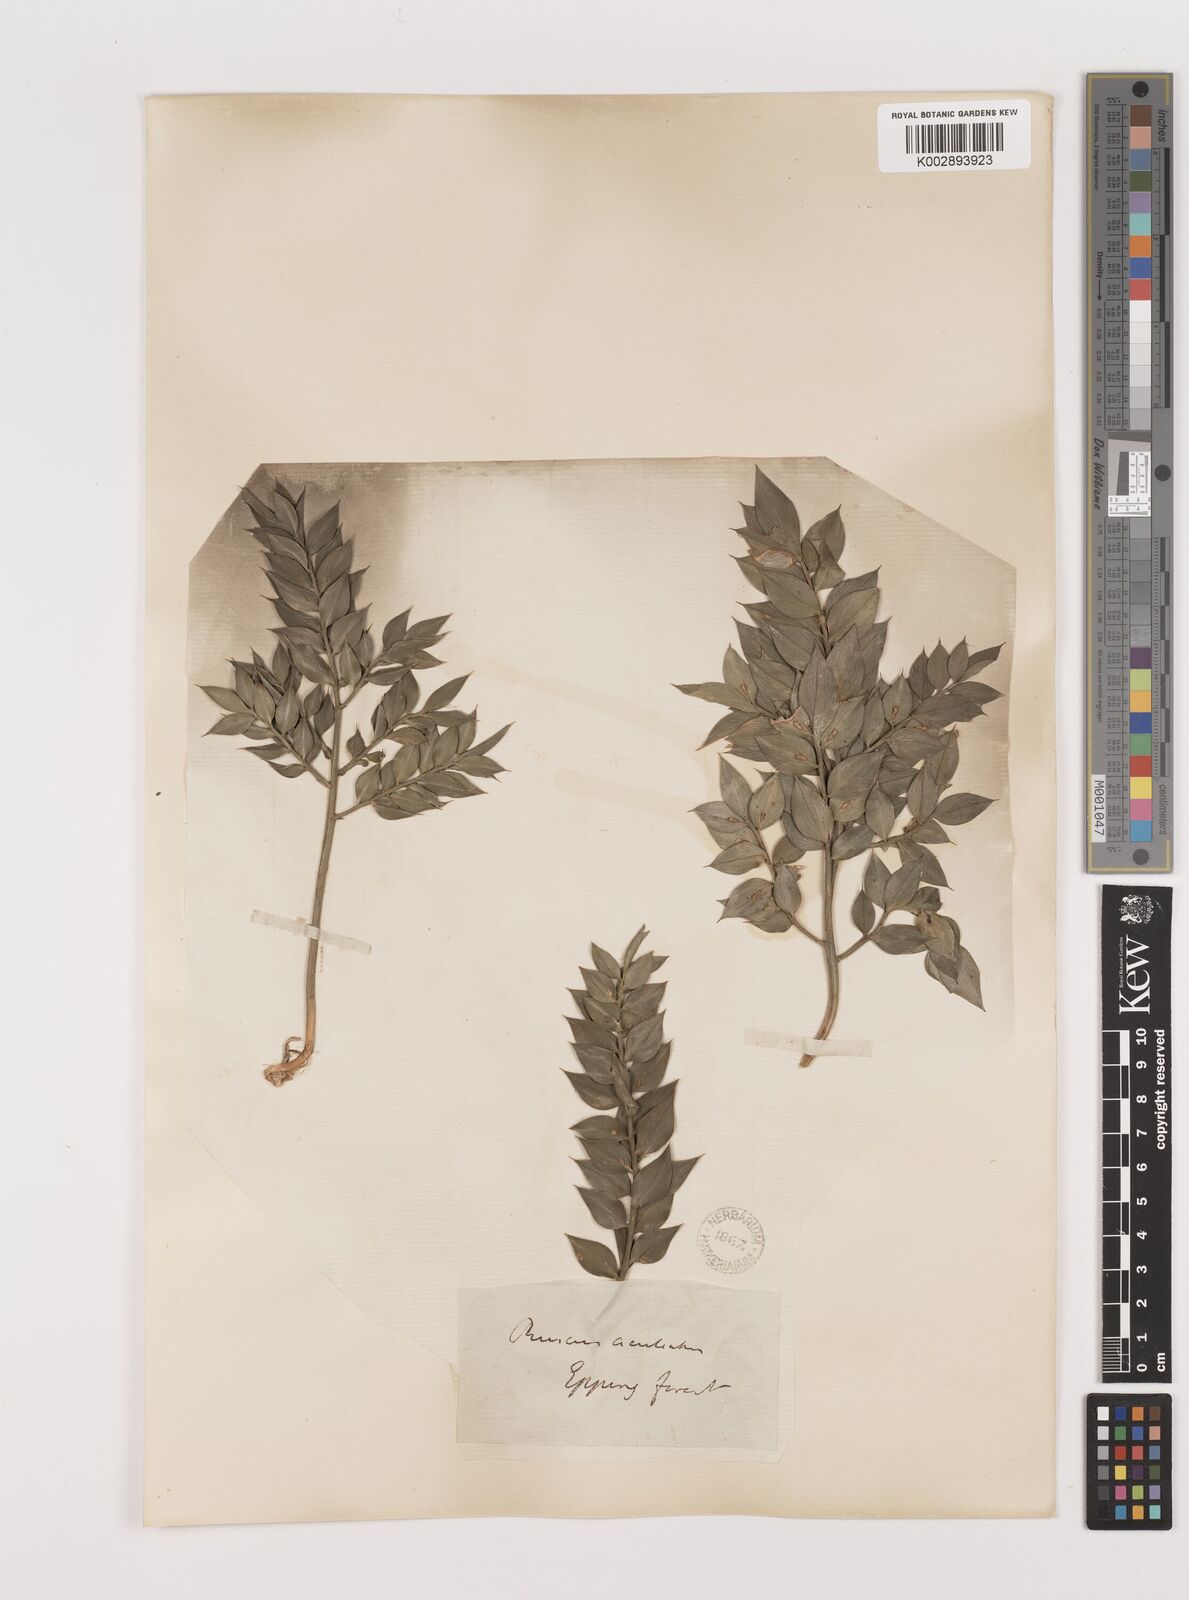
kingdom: Plantae
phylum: Tracheophyta
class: Liliopsida
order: Asparagales
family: Asparagaceae
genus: Ruscus
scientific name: Ruscus aculeatus
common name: Butcher's-broom
